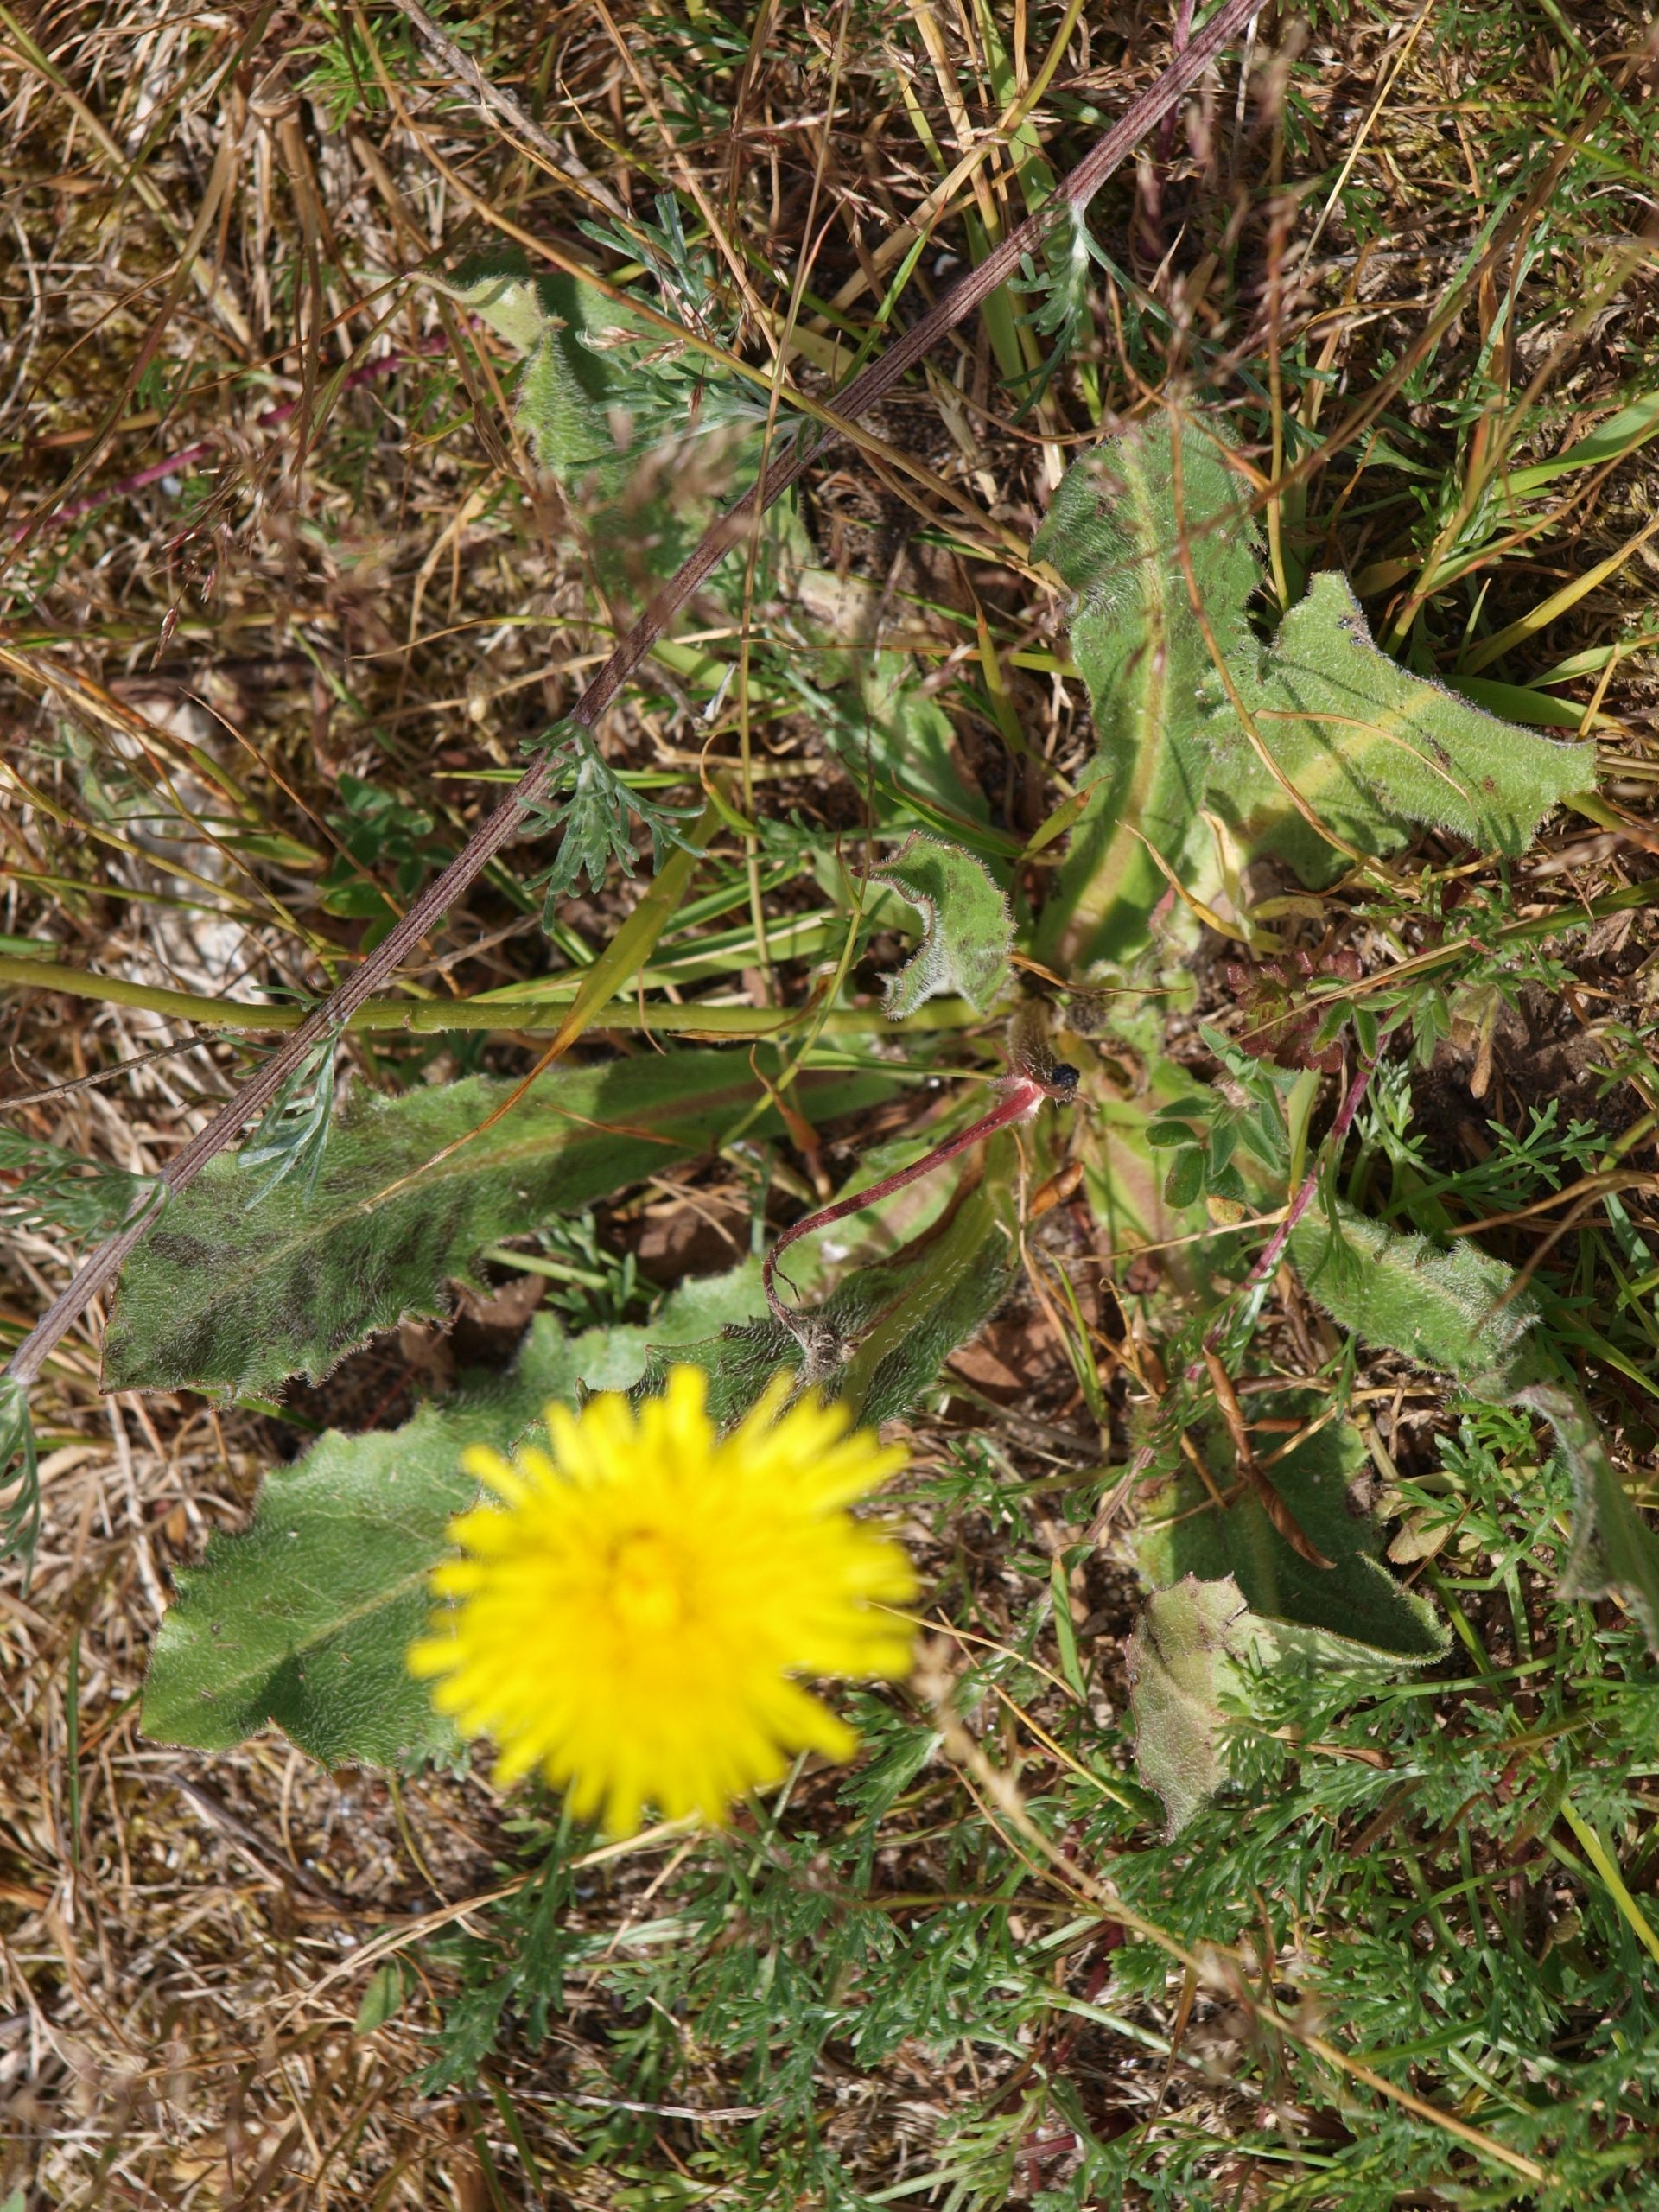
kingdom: Plantae
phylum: Tracheophyta
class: Magnoliopsida
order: Asterales
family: Asteraceae
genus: Trommsdorffia
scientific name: Trommsdorffia maculata
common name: Plettet kongepen
